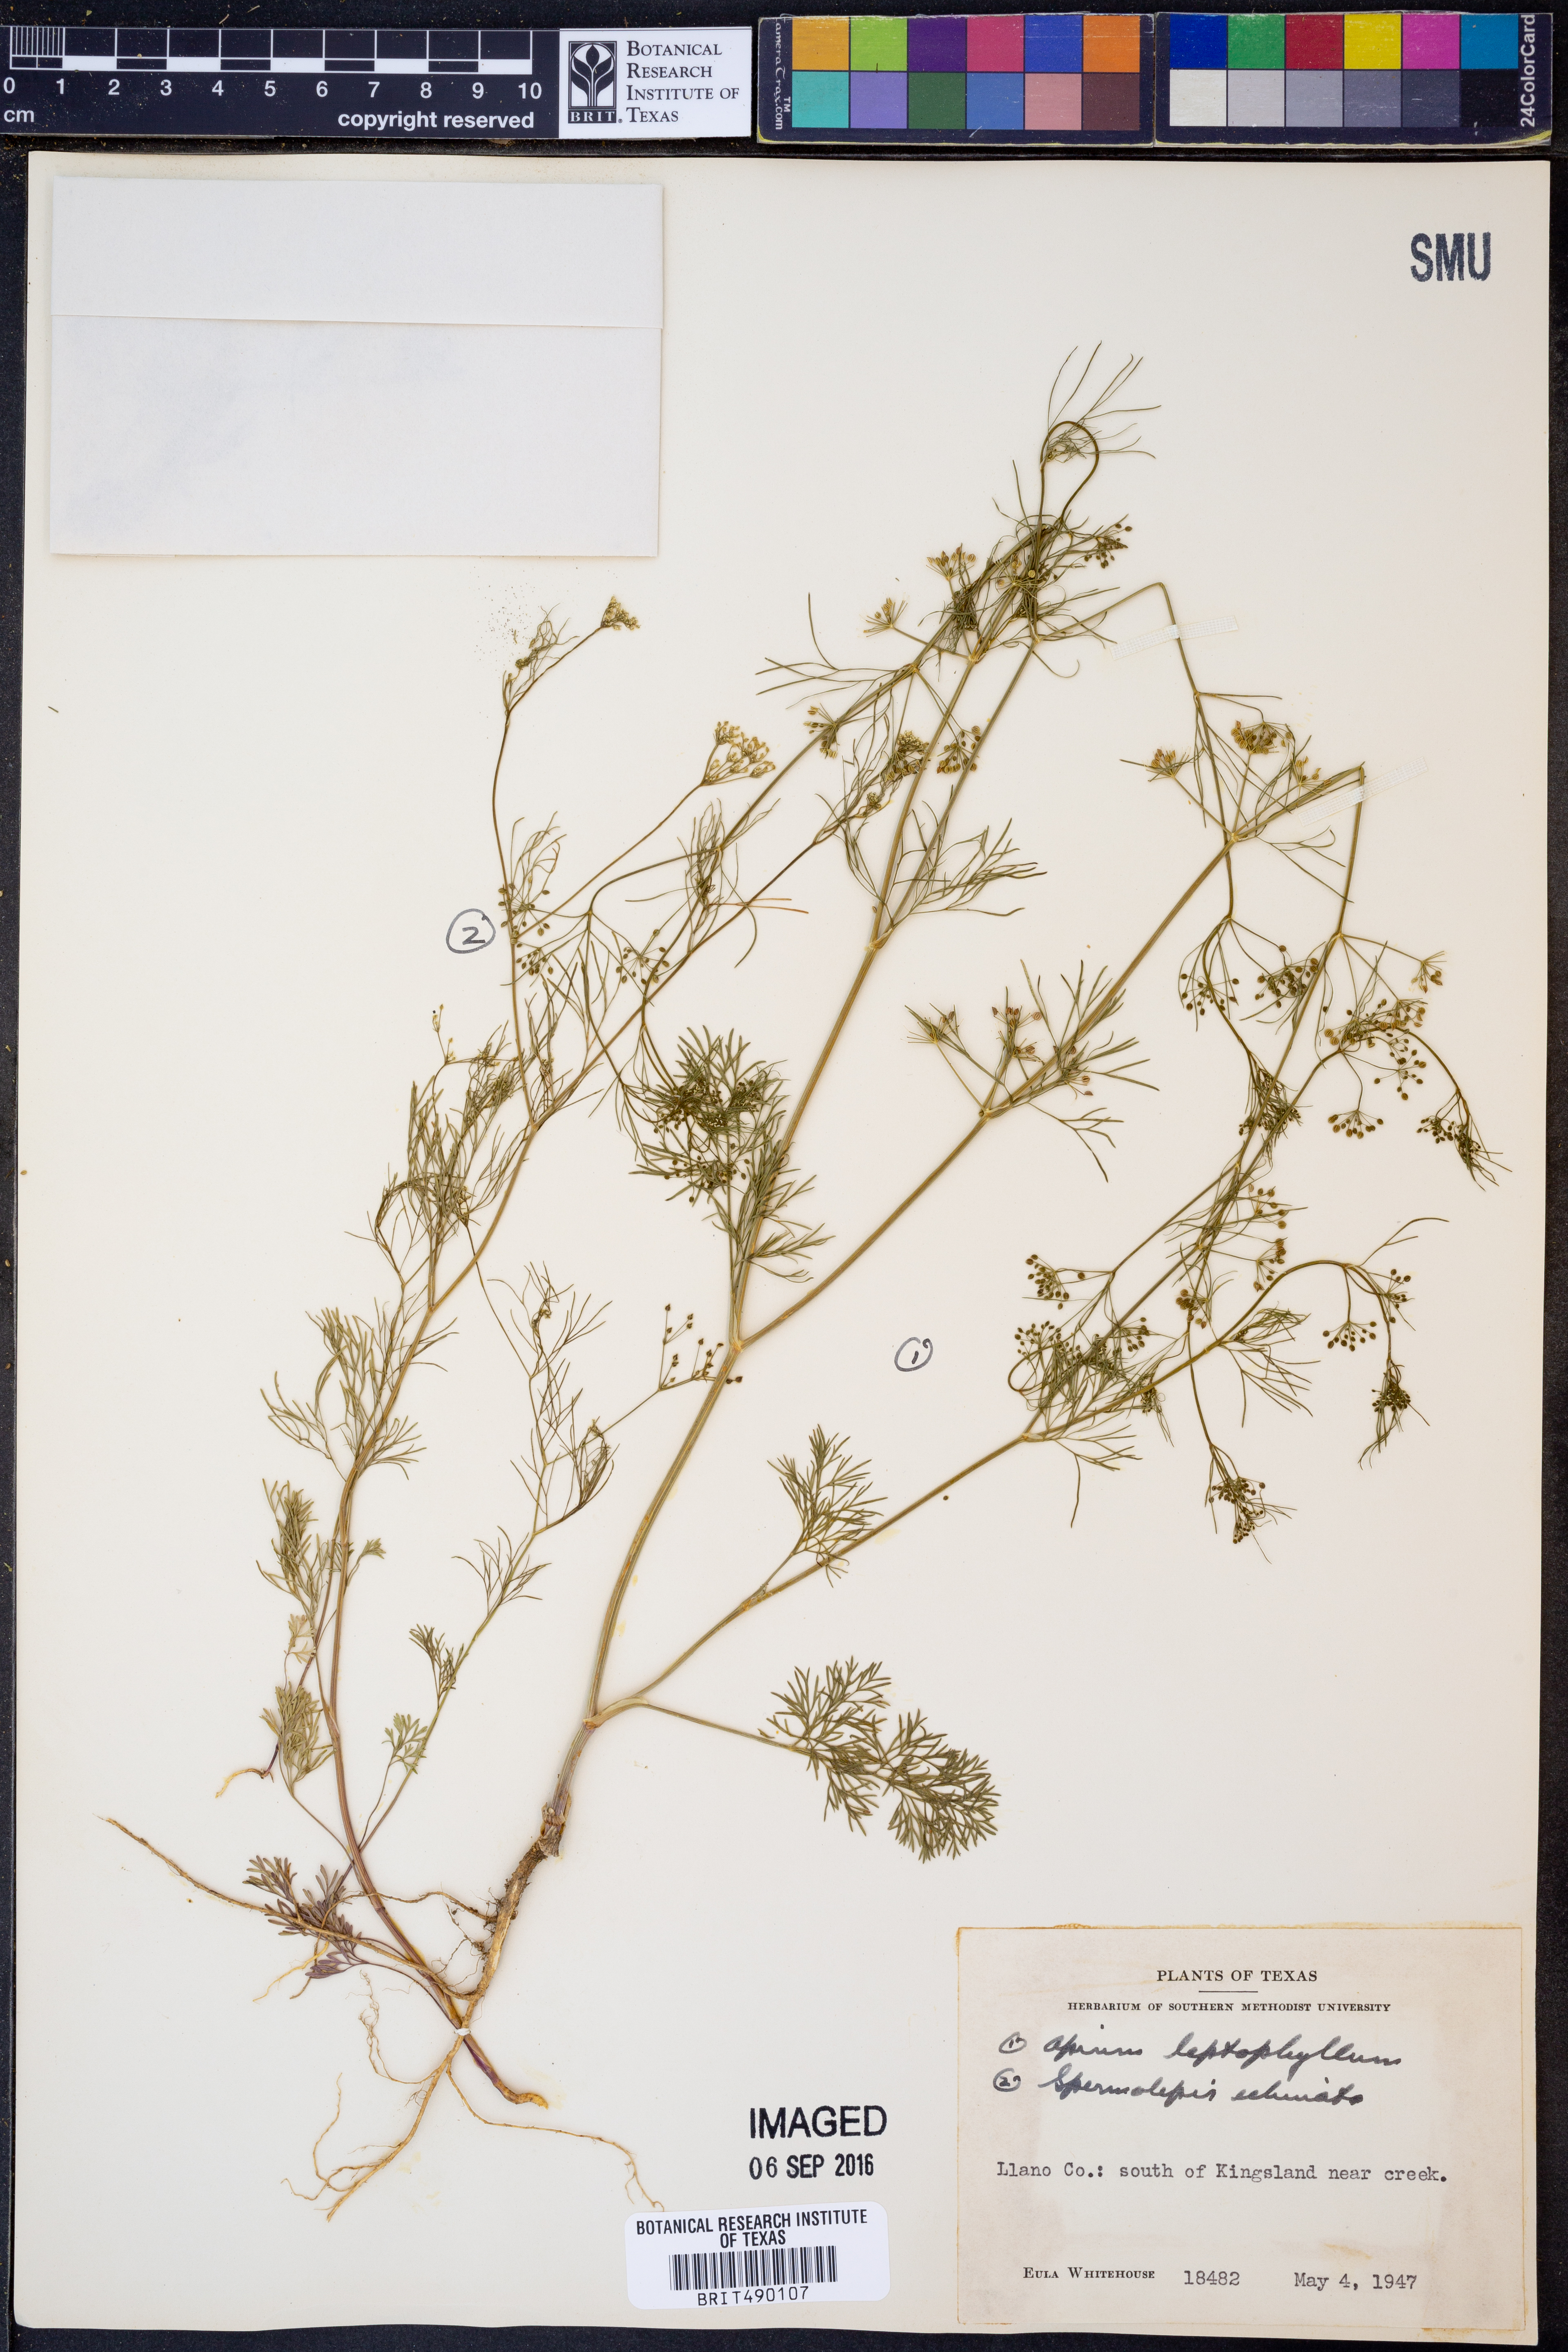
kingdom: Plantae
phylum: Tracheophyta
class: Magnoliopsida
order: Apiales
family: Apiaceae
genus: Cyclospermum
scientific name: Cyclospermum leptophyllum
